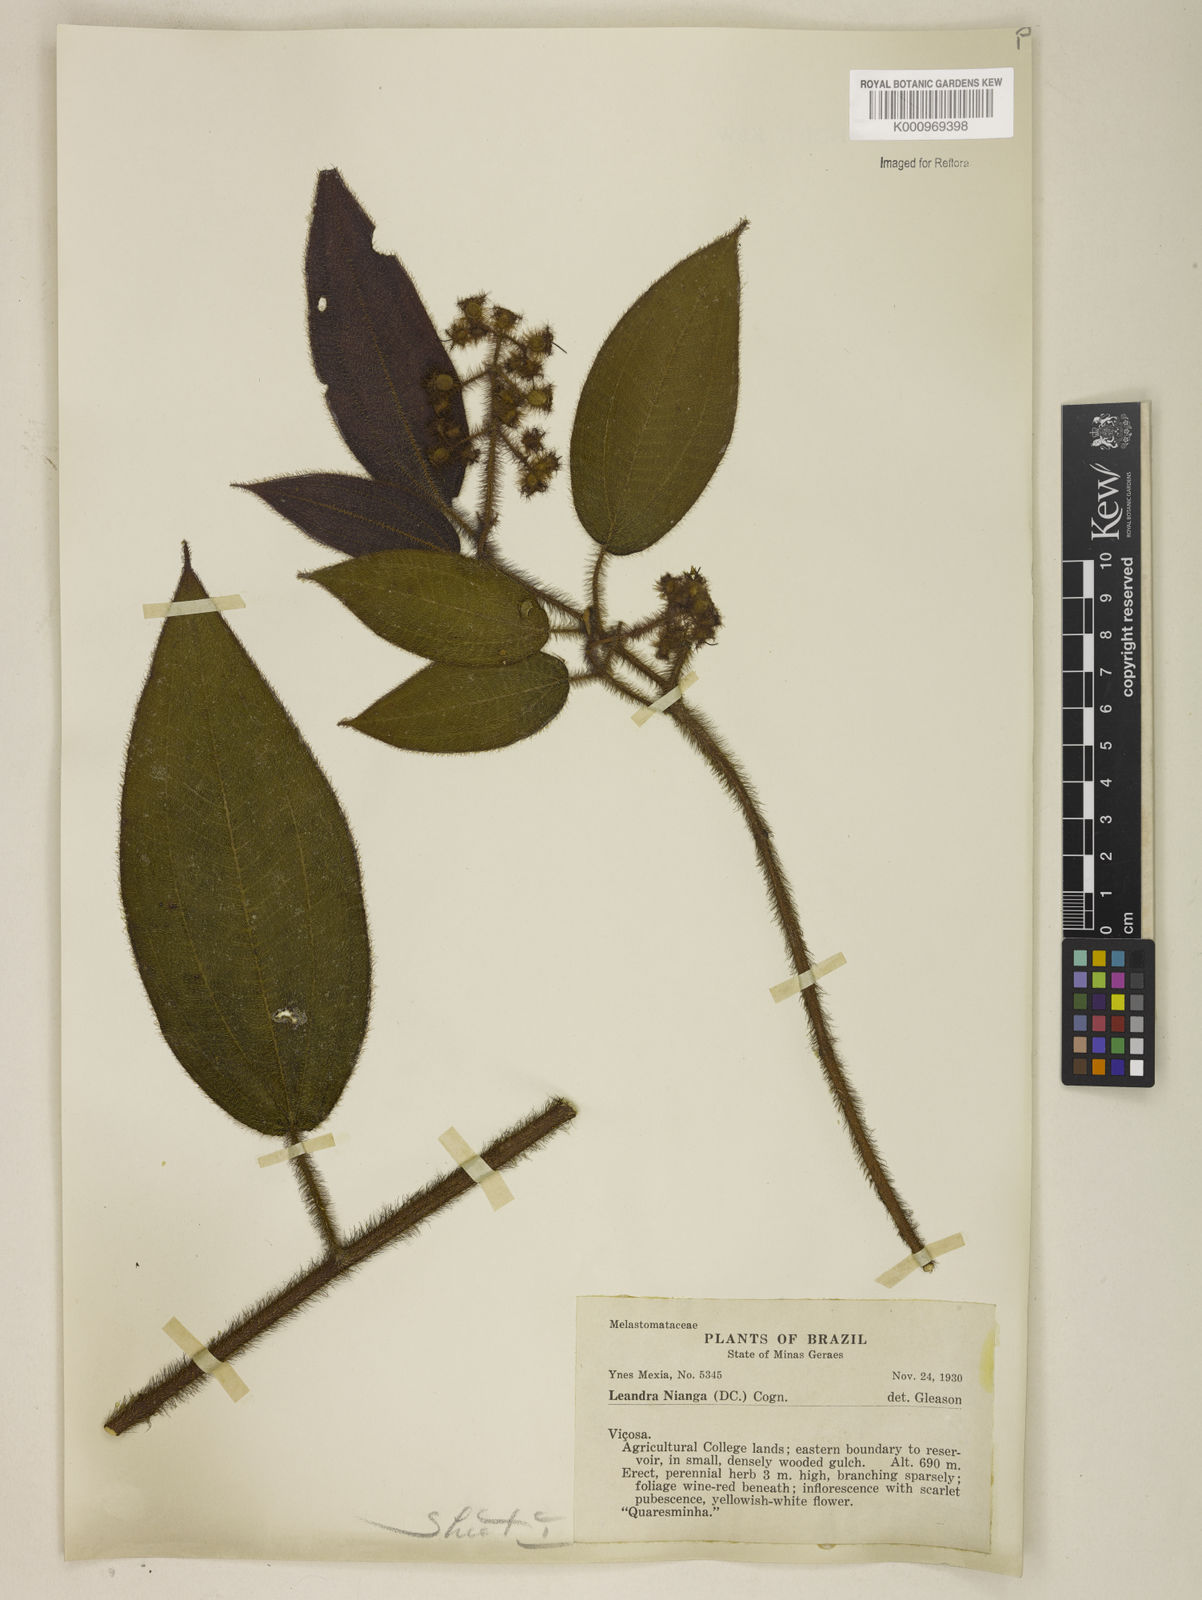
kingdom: Plantae
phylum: Tracheophyta
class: Magnoliopsida
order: Myrtales
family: Melastomataceae
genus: Miconia
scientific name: Miconia nianga
